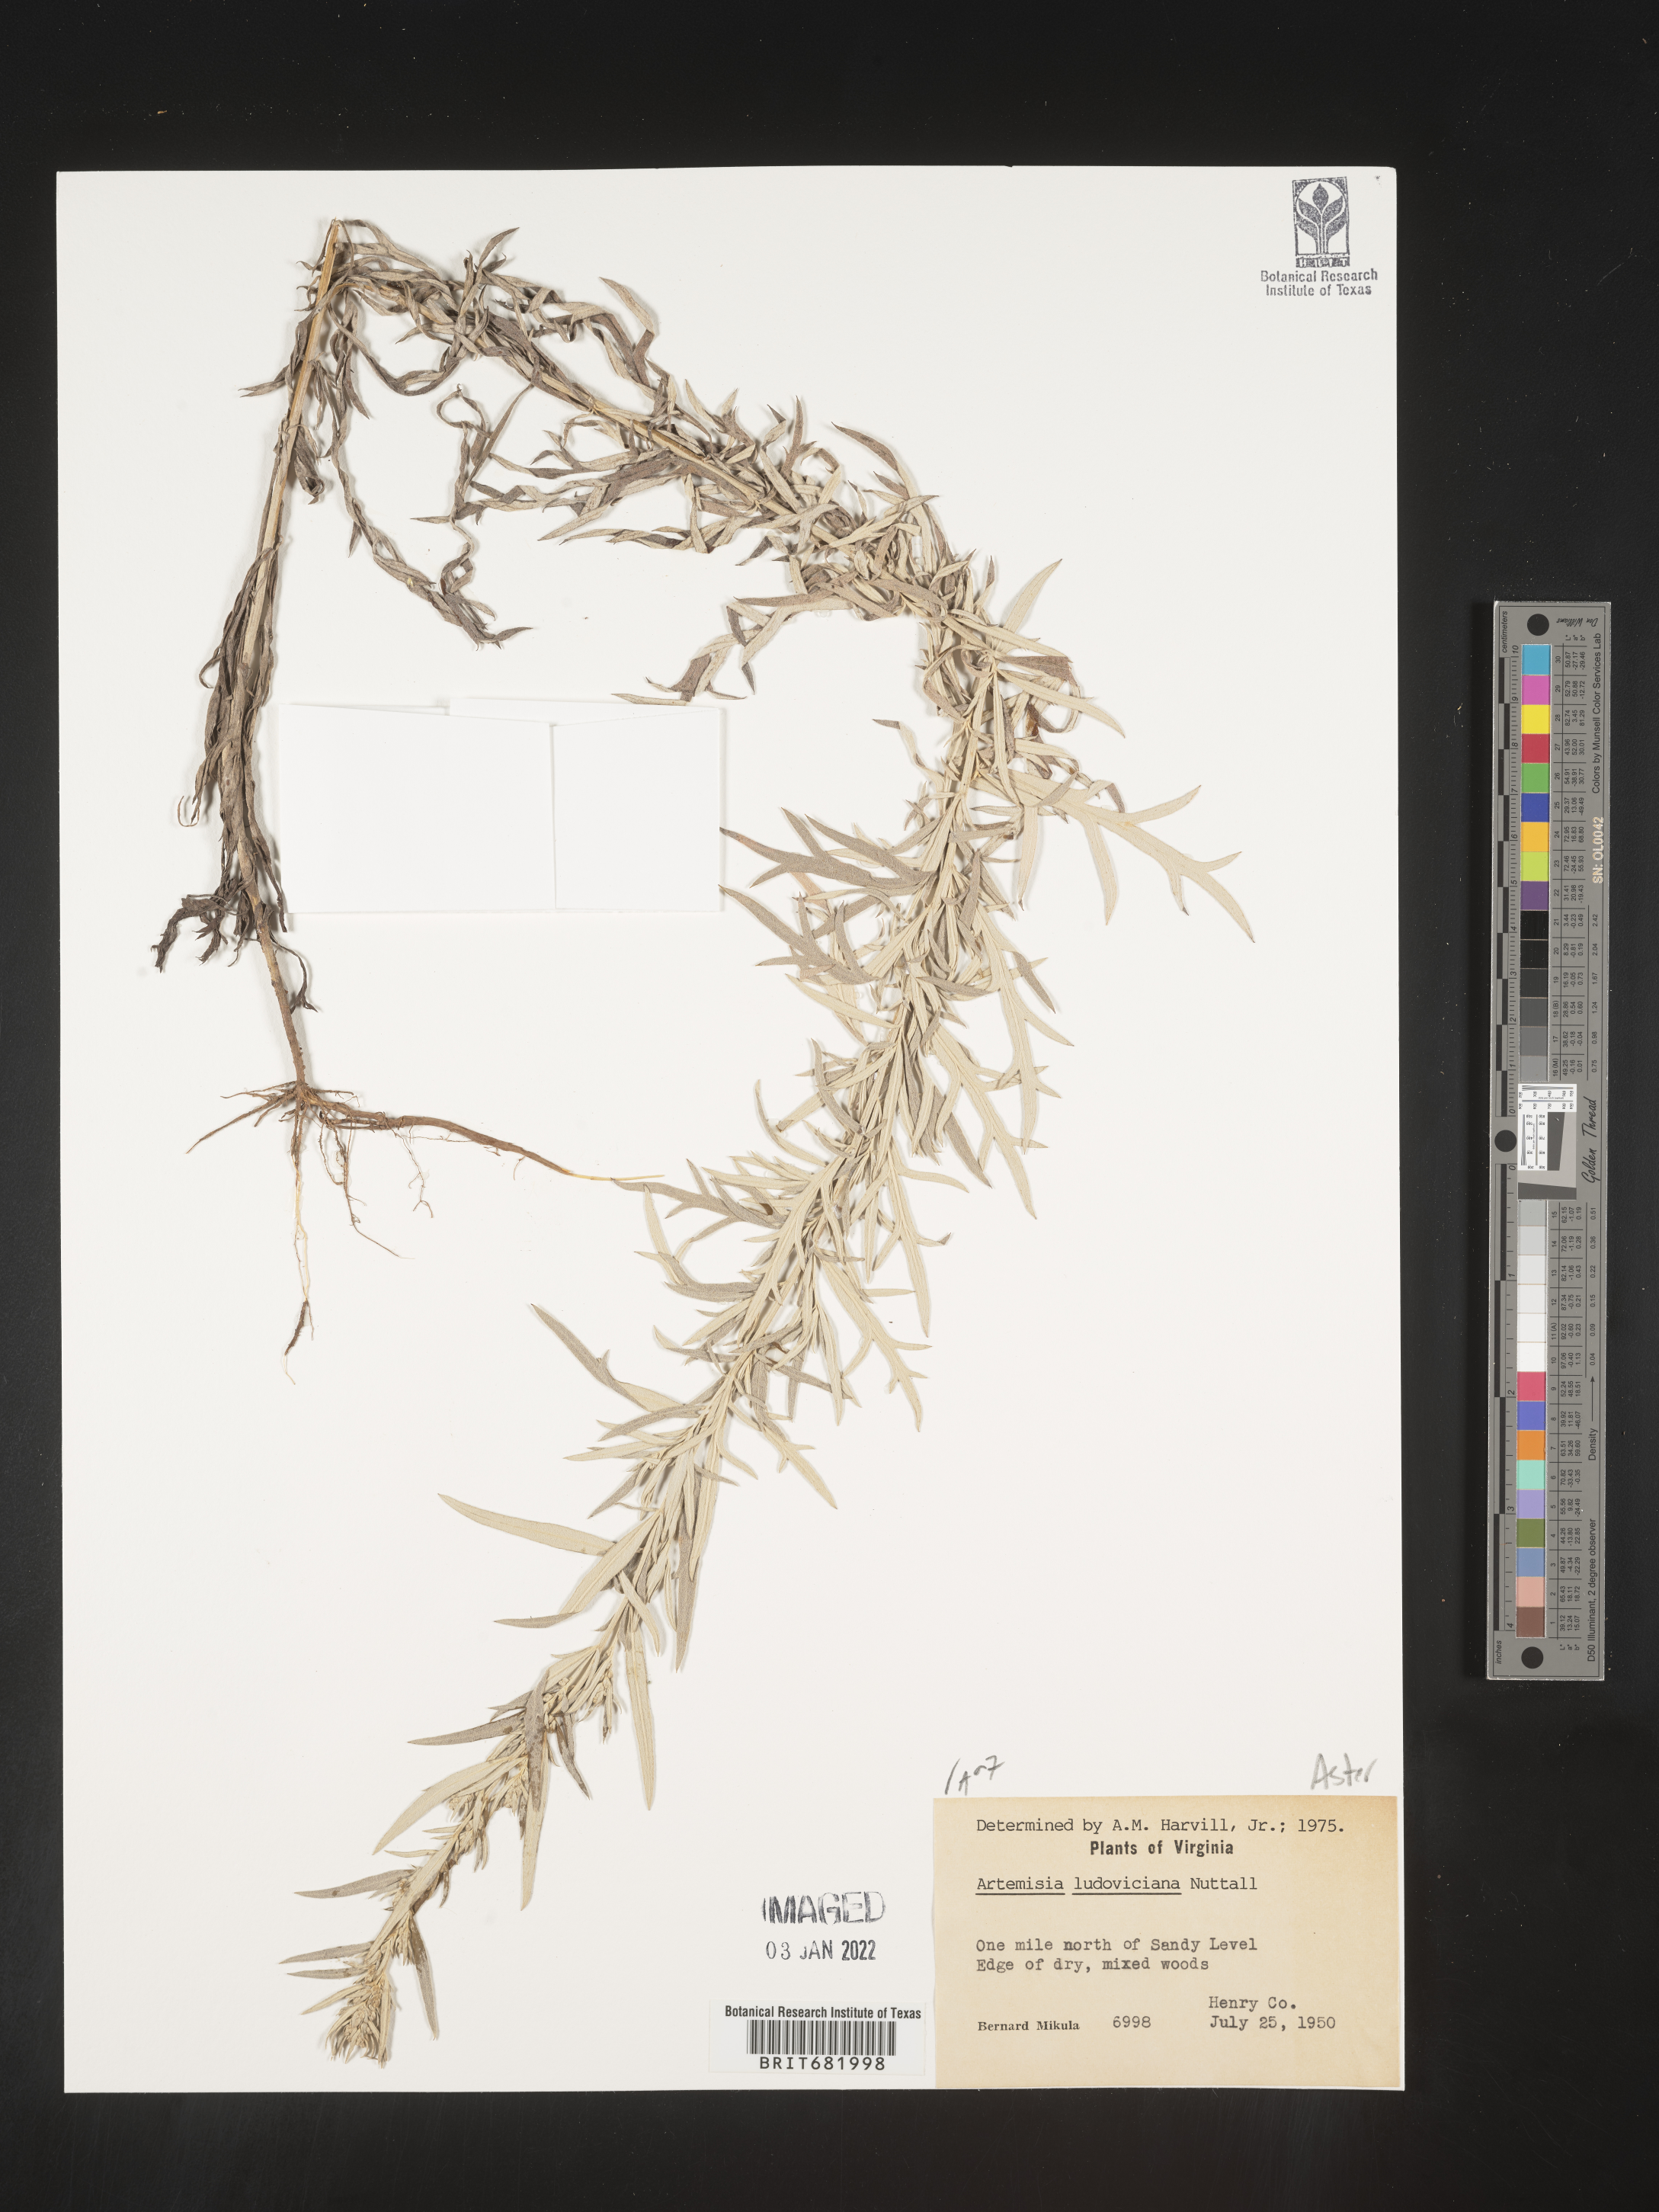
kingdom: Plantae
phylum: Tracheophyta
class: Magnoliopsida
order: Asterales
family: Asteraceae
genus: Artemisia
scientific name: Artemisia ludoviciana
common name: Western mugwort
